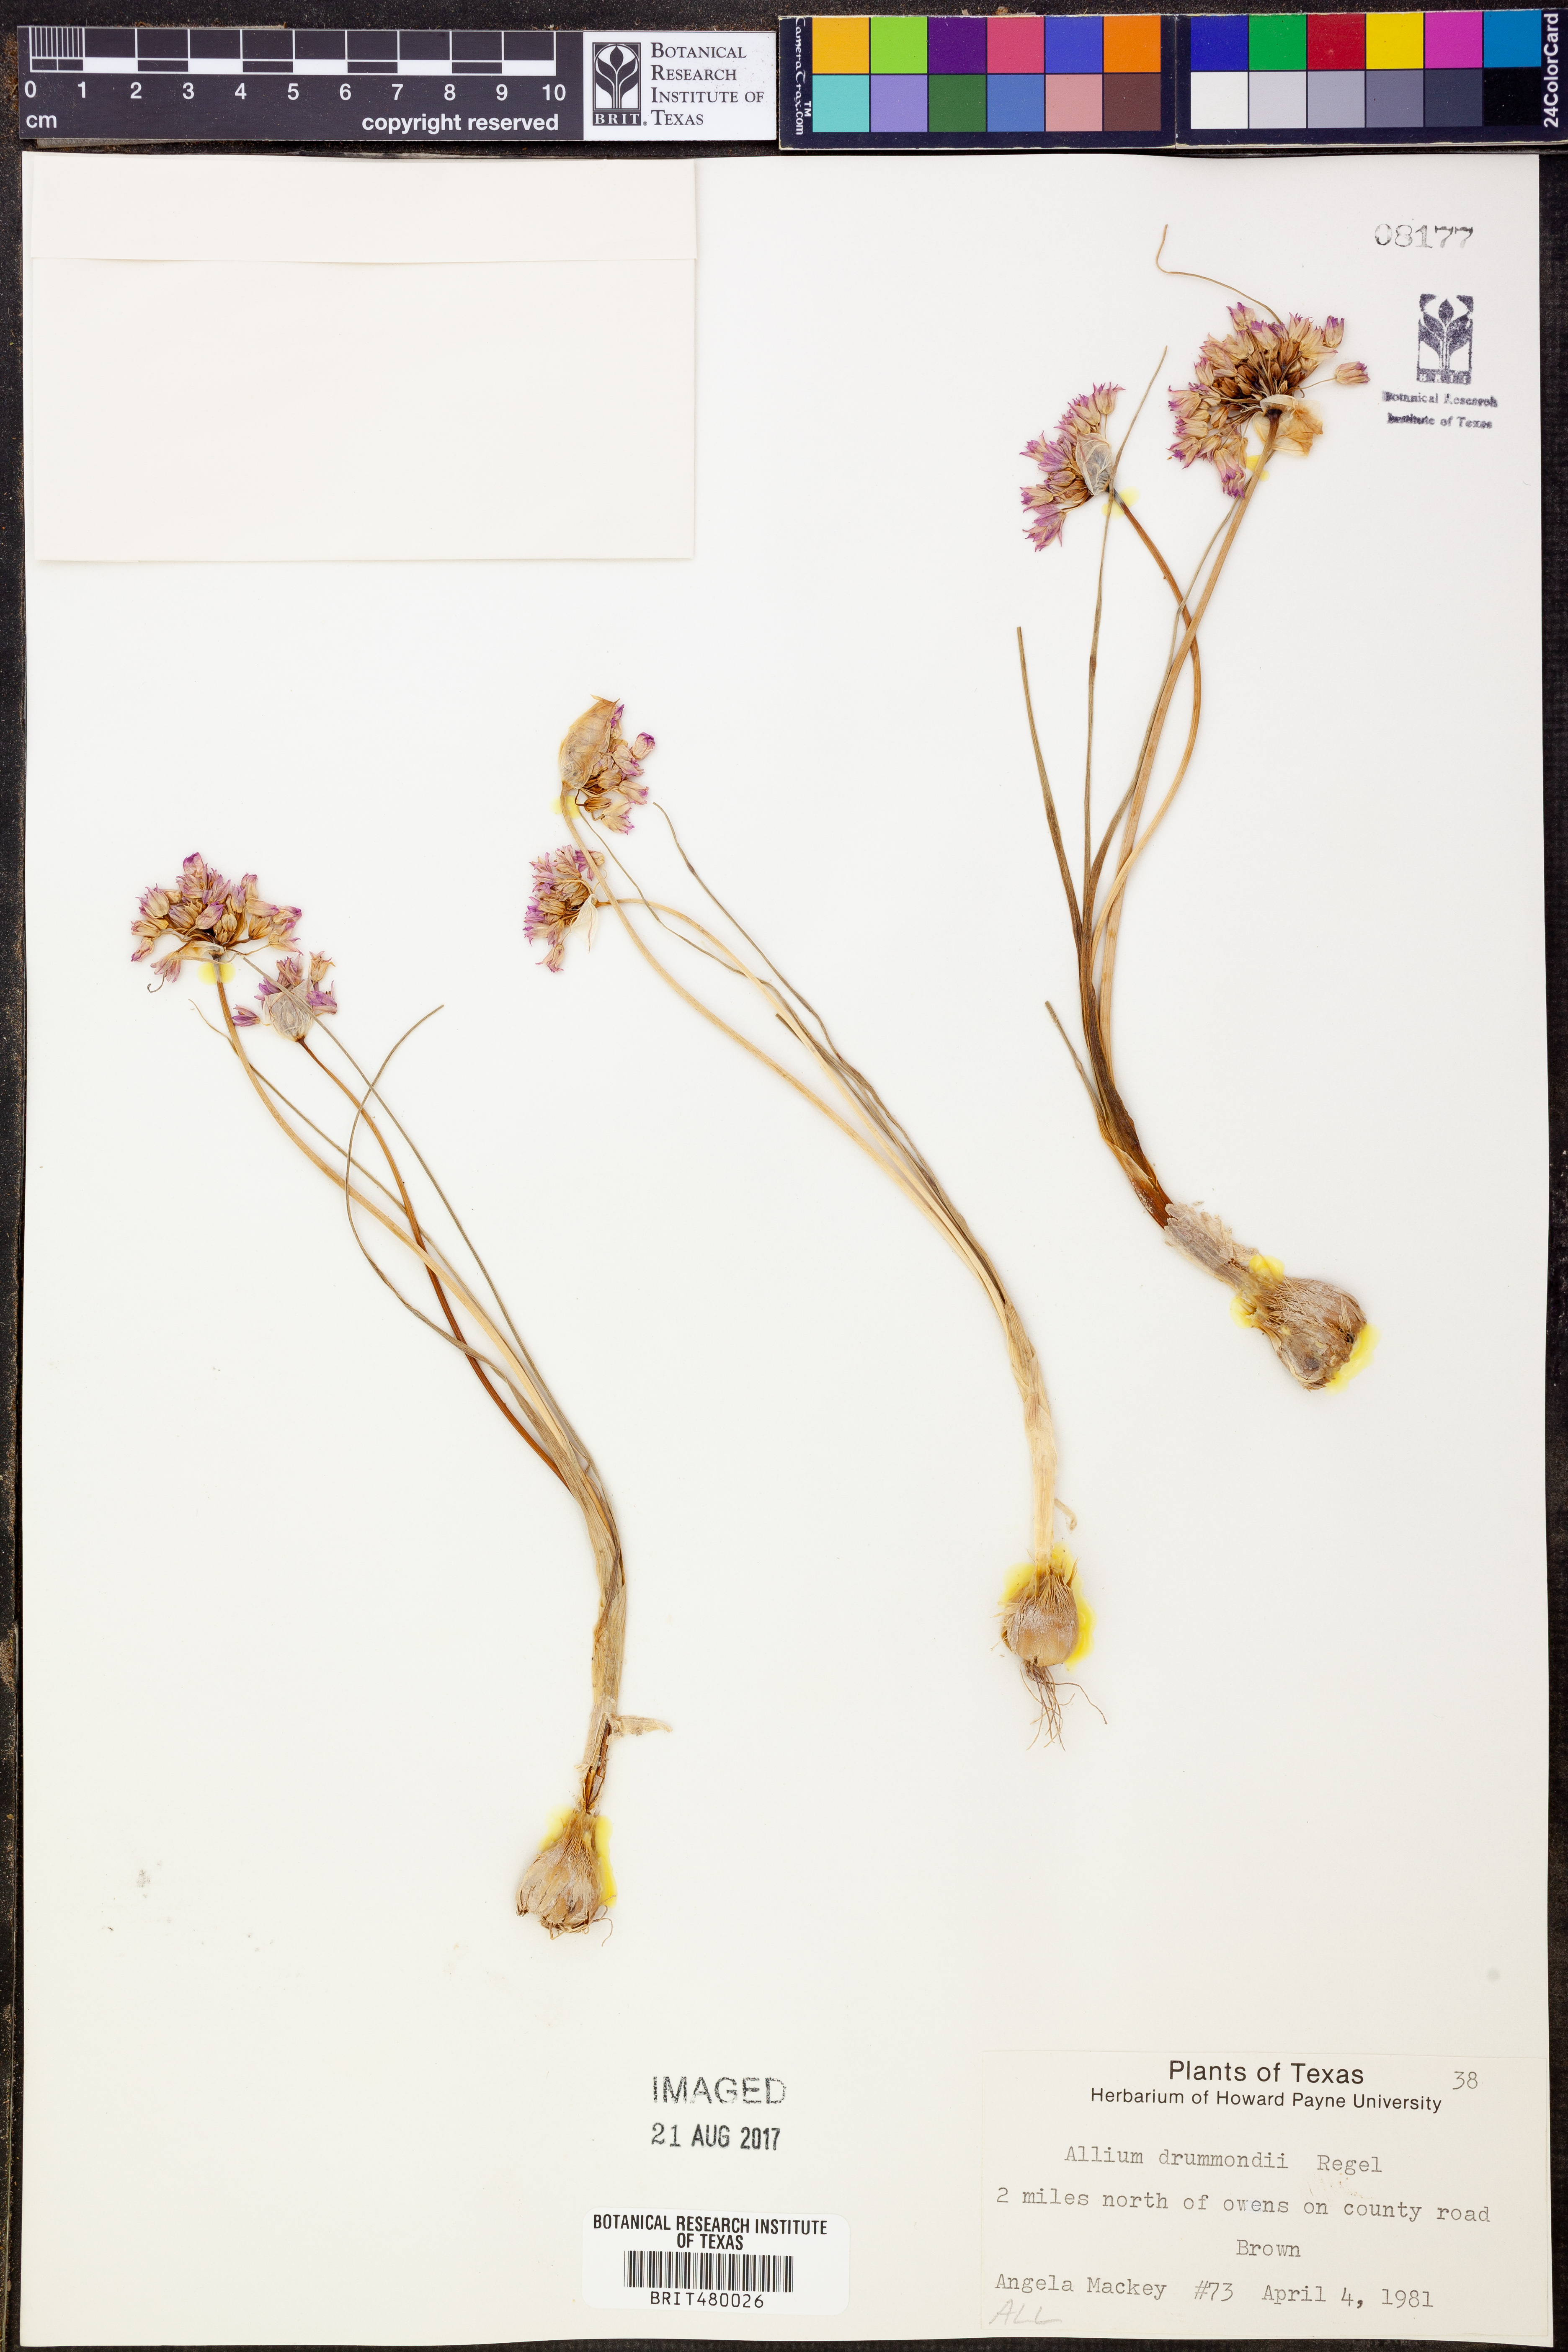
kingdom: Plantae
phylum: Tracheophyta
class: Liliopsida
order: Asparagales
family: Amaryllidaceae
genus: Allium
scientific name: Allium drummondii
